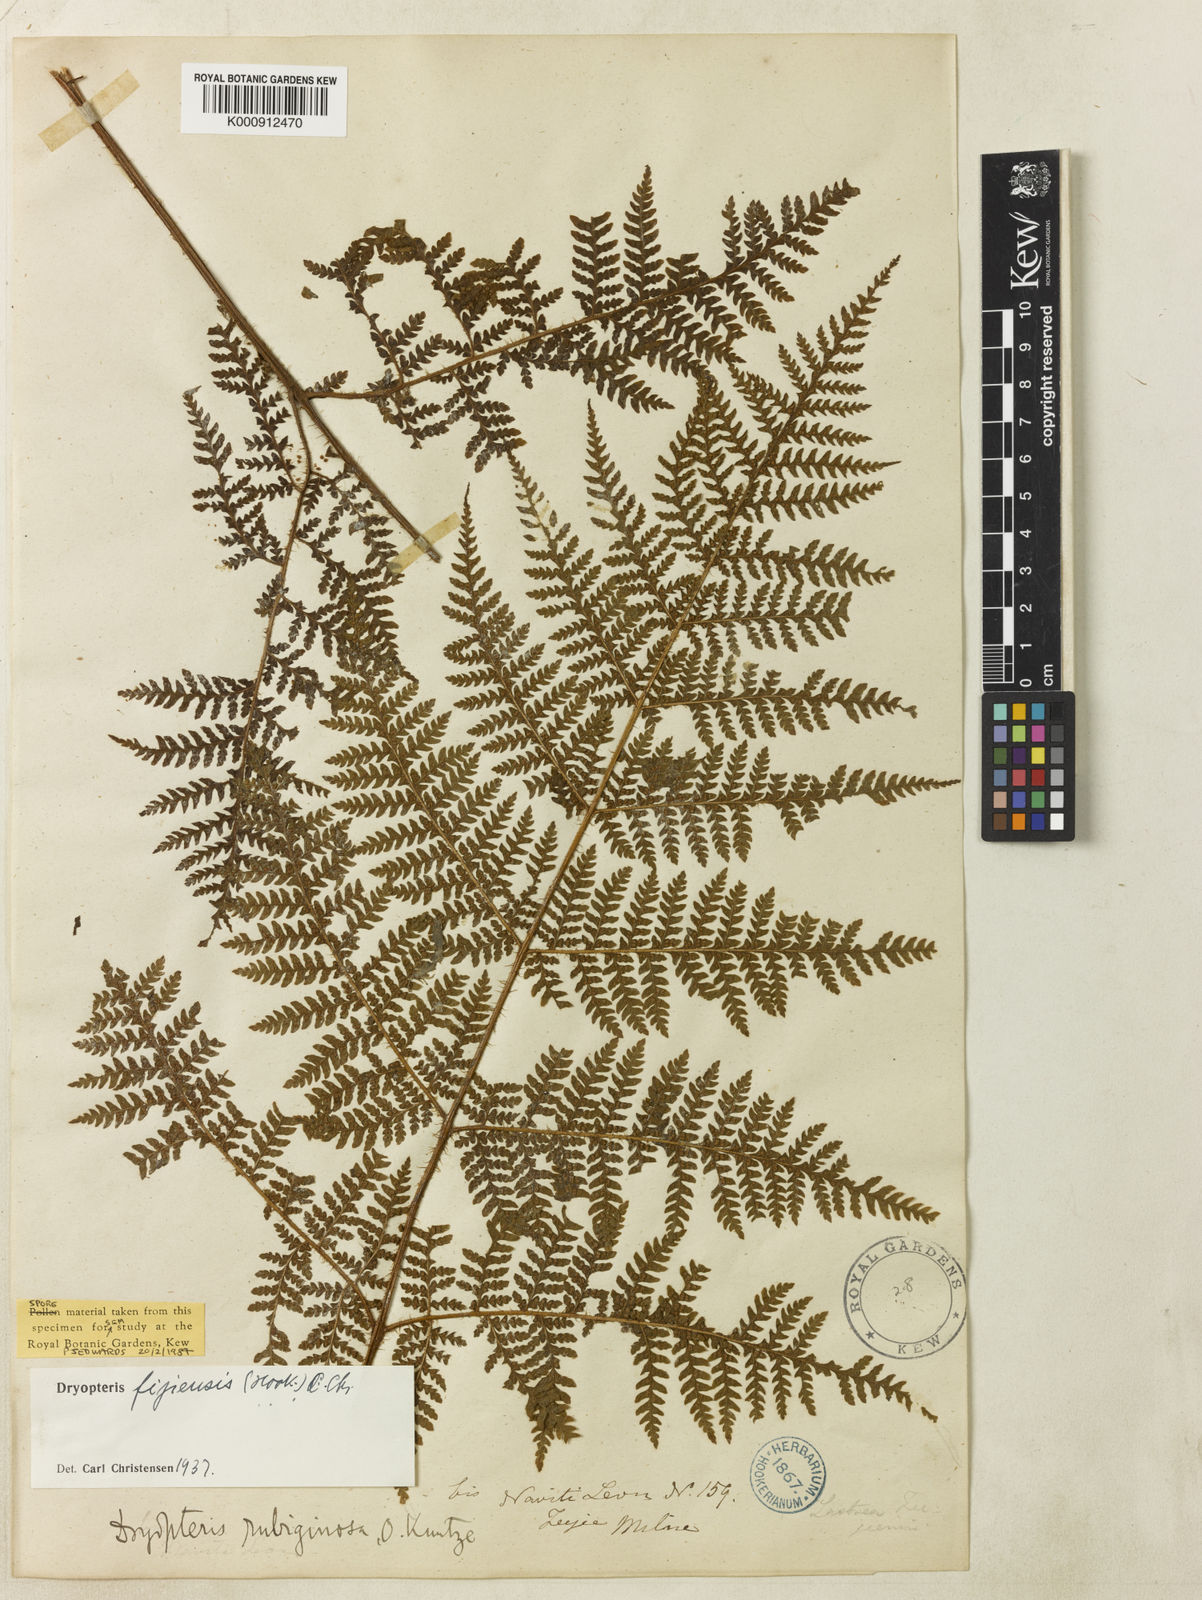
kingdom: Plantae
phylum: Tracheophyta
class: Polypodiopsida
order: Polypodiales
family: Dryopteridaceae
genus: Ctenitis
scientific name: Ctenitis fijiensis
